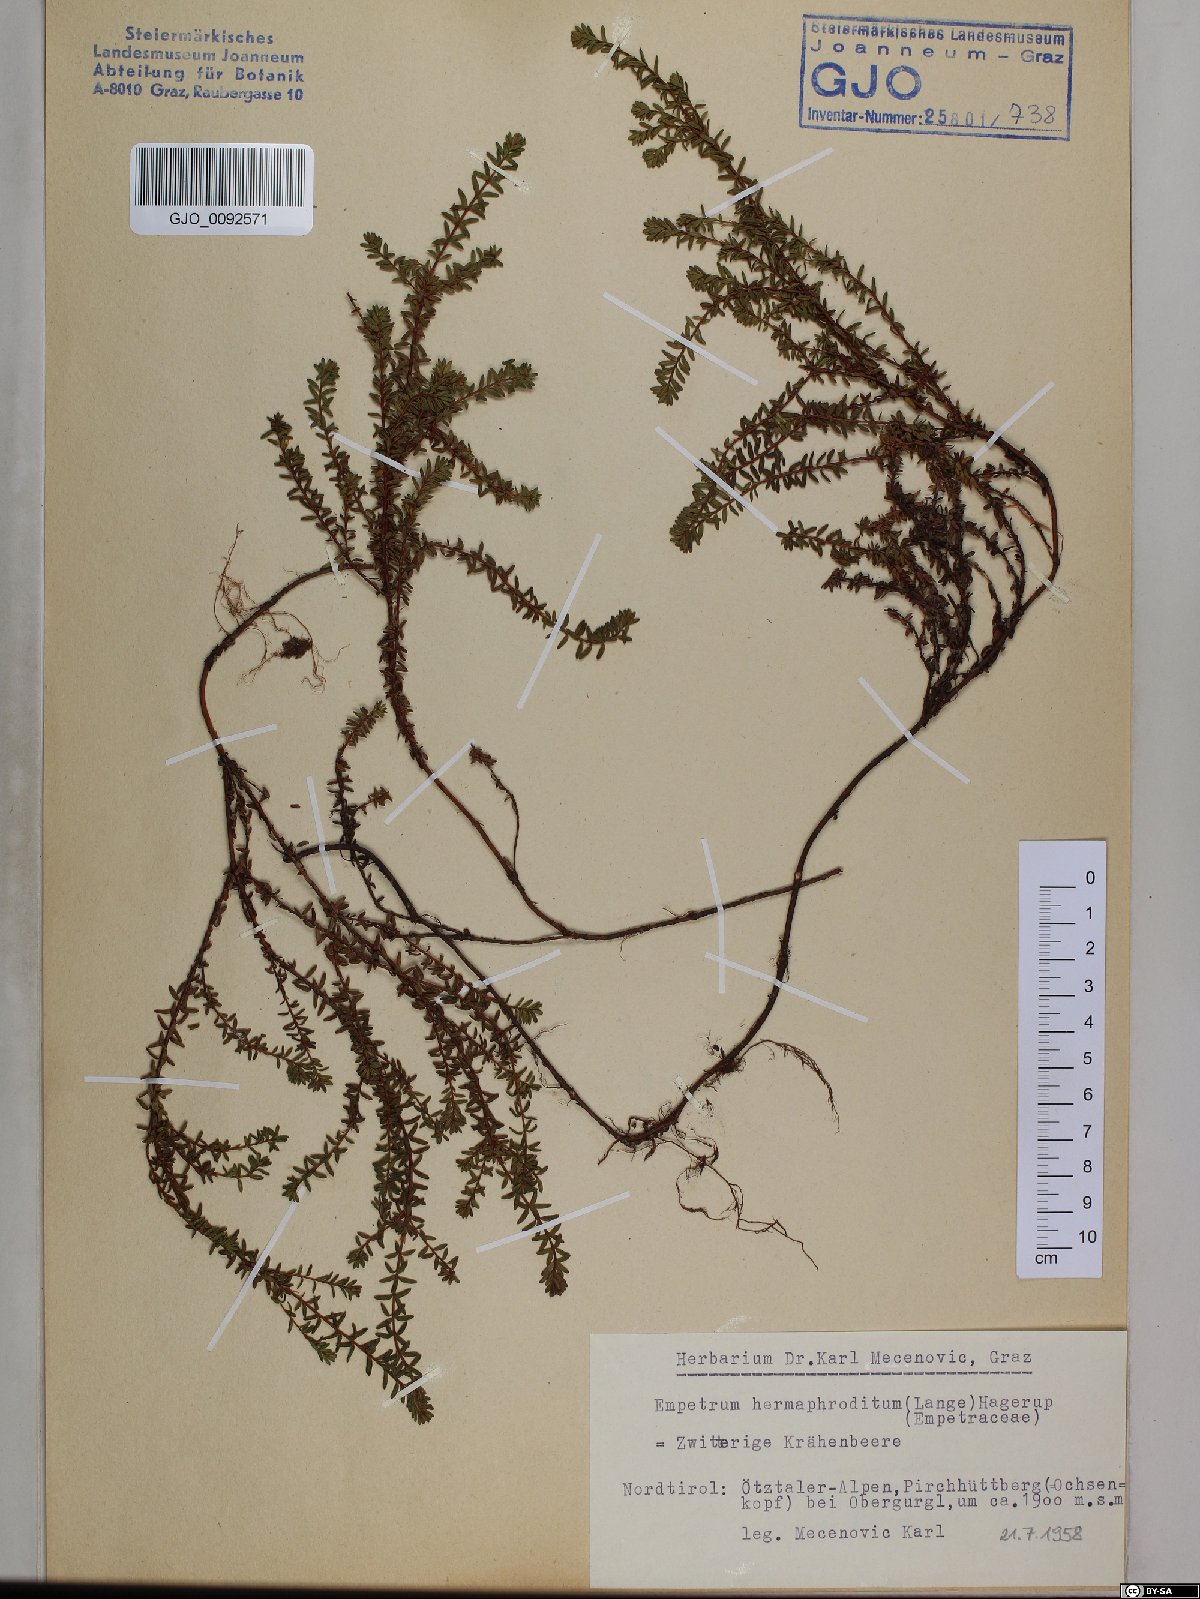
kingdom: Plantae
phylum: Tracheophyta
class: Magnoliopsida
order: Ericales
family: Ericaceae
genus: Empetrum
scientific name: Empetrum hermaphroditum
